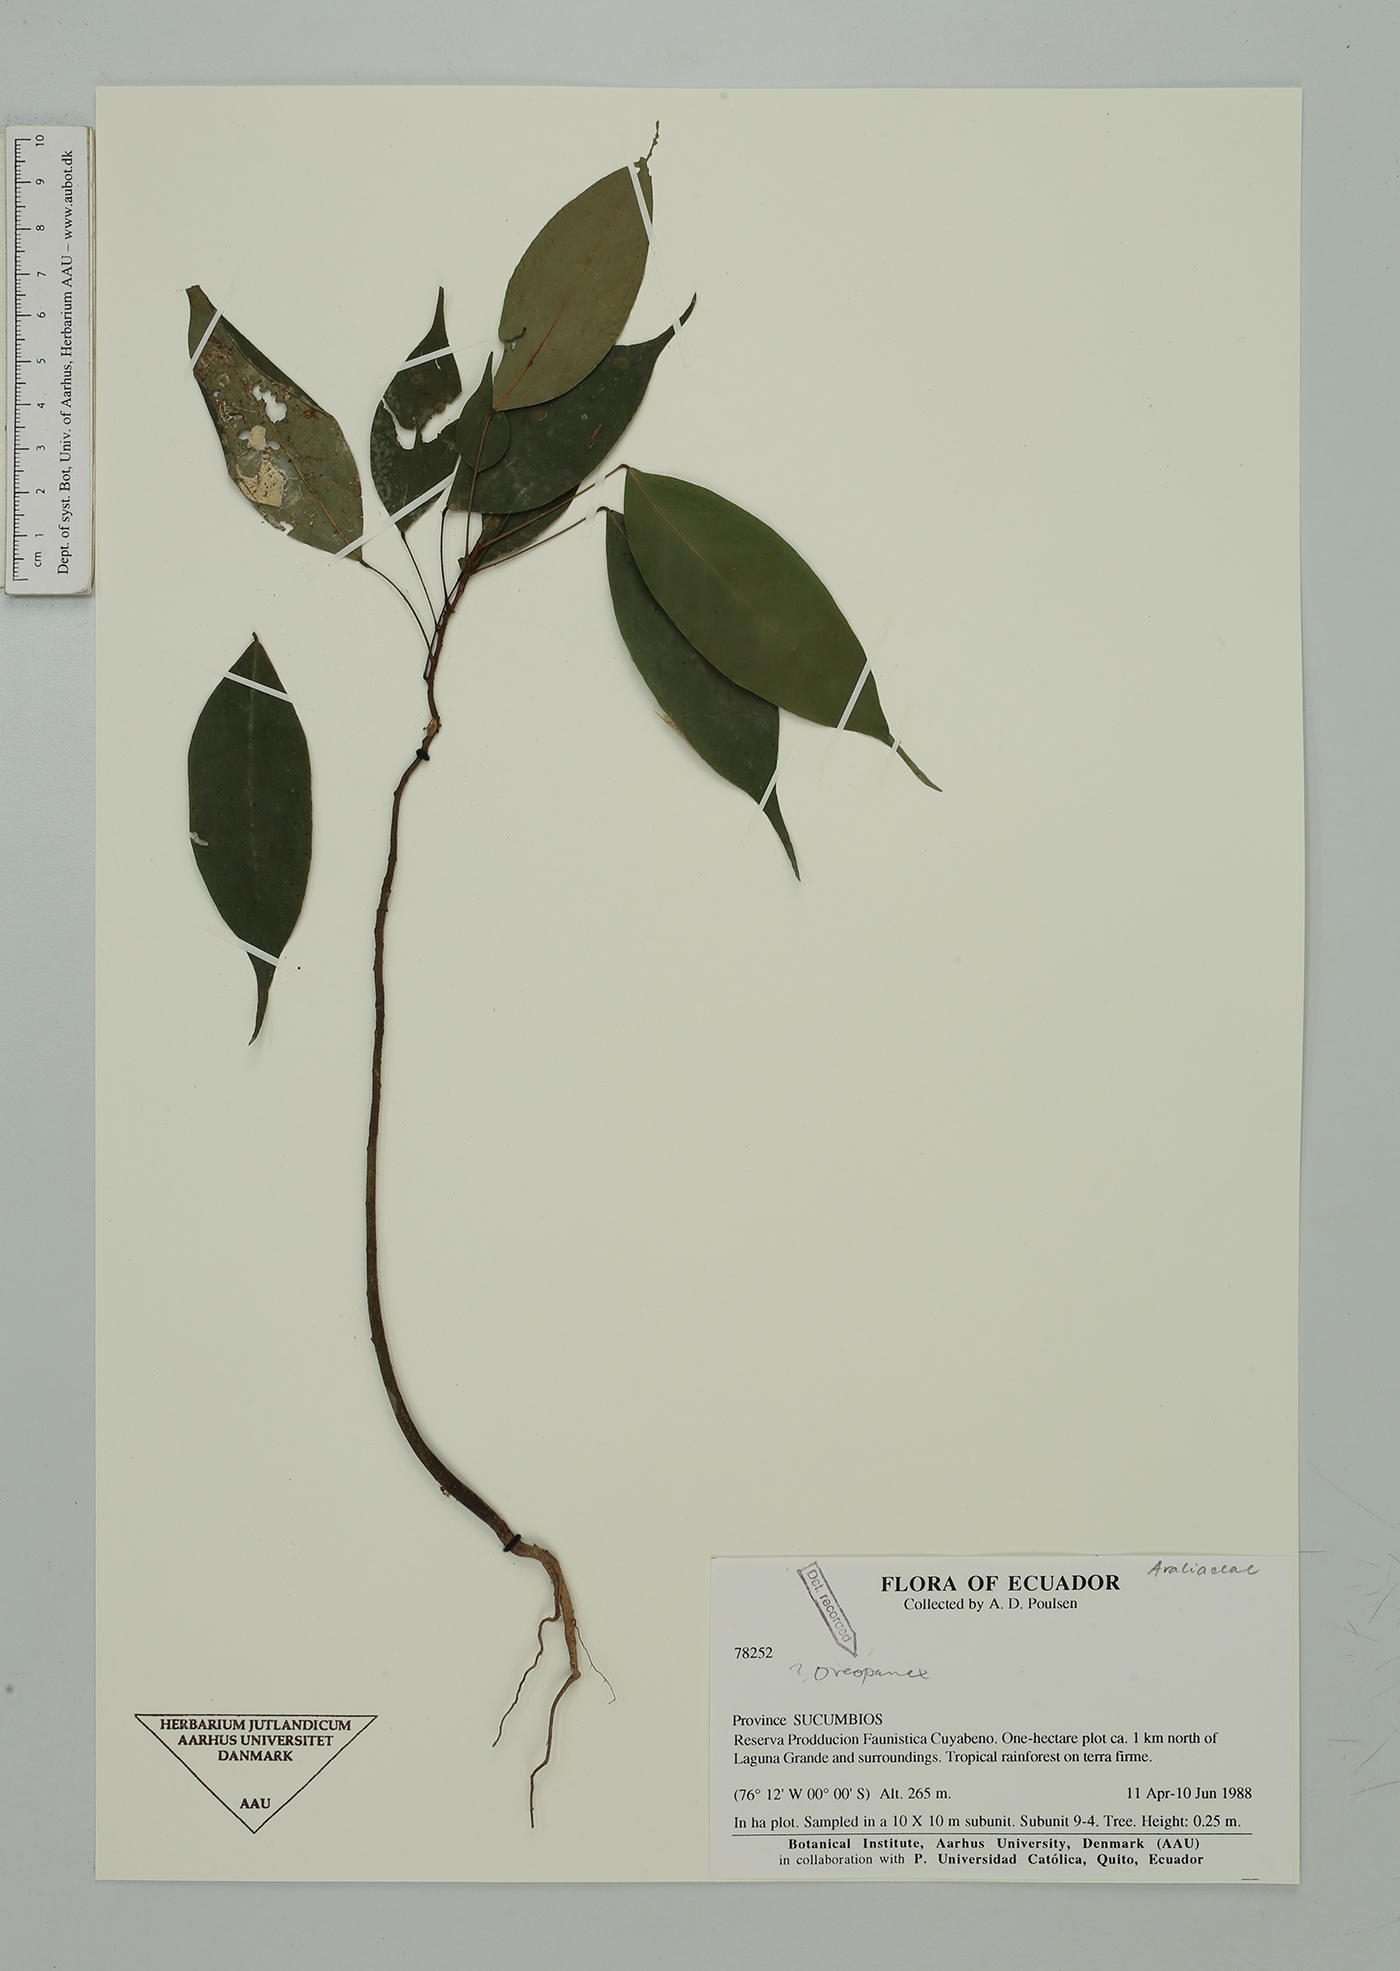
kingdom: Plantae
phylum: Tracheophyta
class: Magnoliopsida
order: Apiales
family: Araliaceae
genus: Oreopanax
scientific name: Oreopanax
